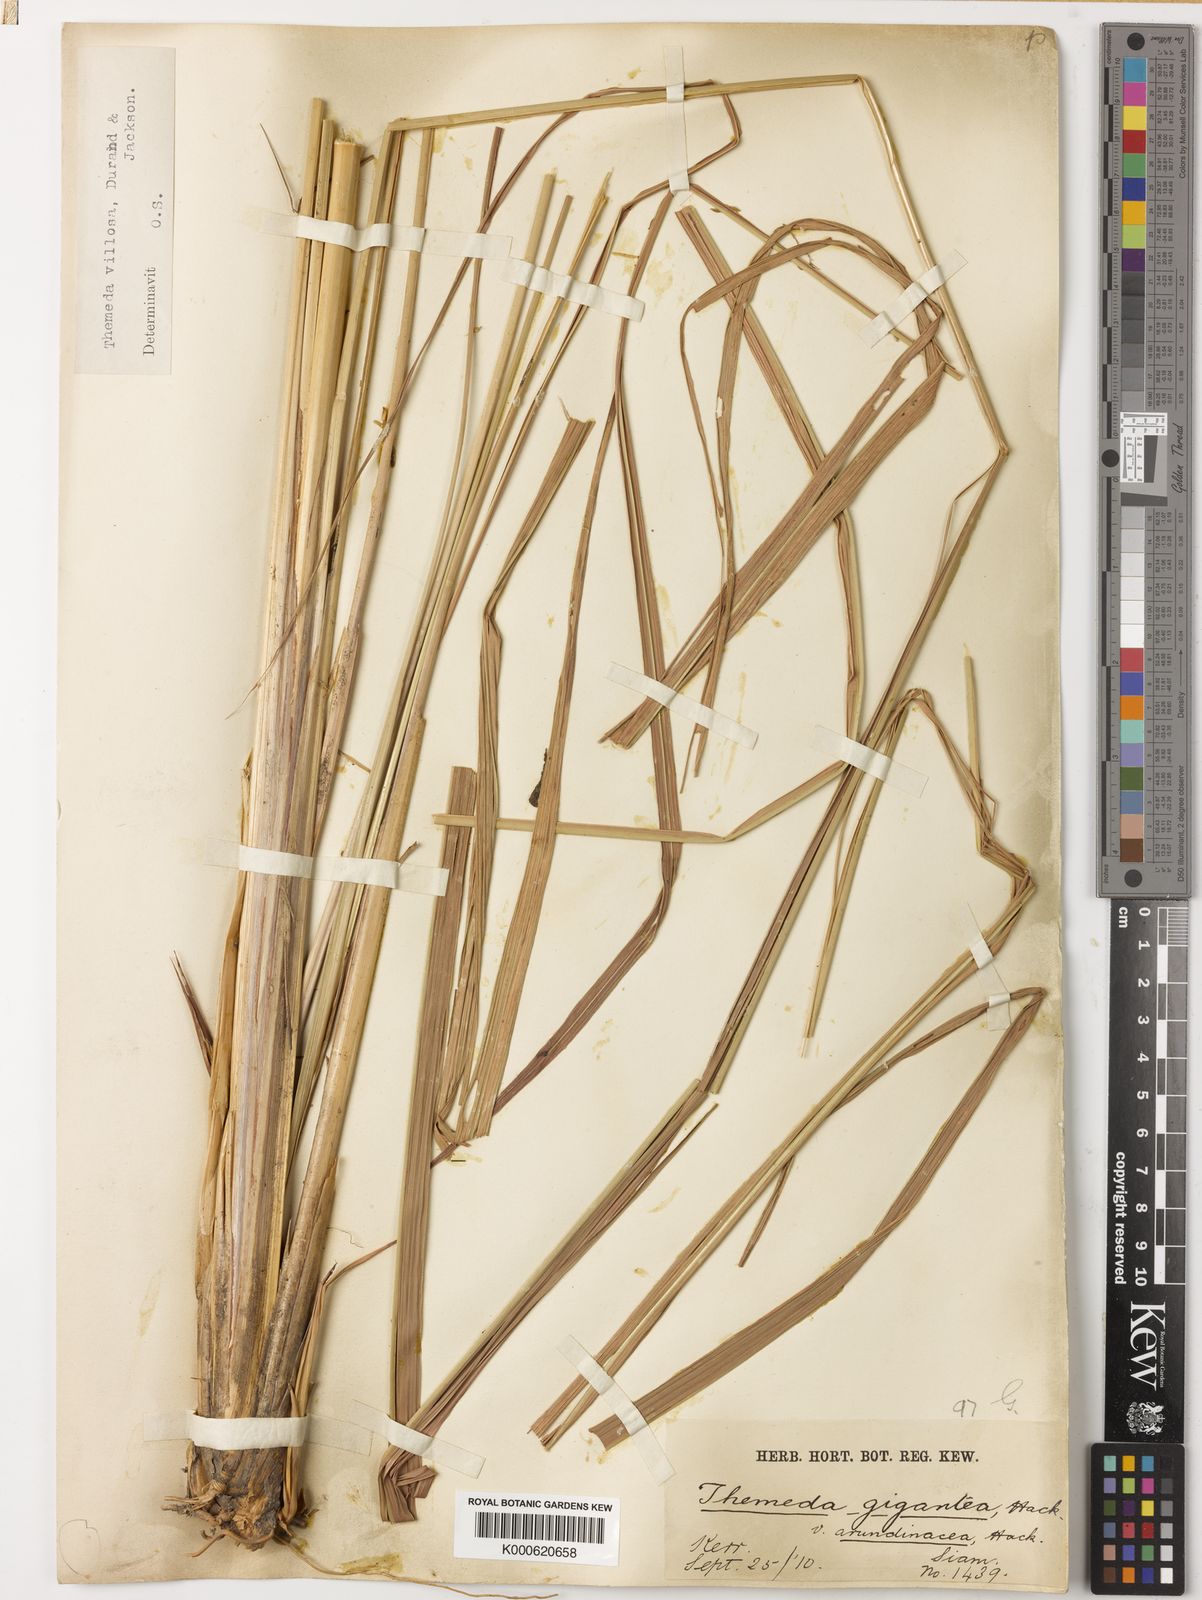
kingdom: Plantae
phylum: Tracheophyta
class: Liliopsida
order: Poales
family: Poaceae
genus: Themeda
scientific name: Themeda villosa
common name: Silky kangaroo grass
